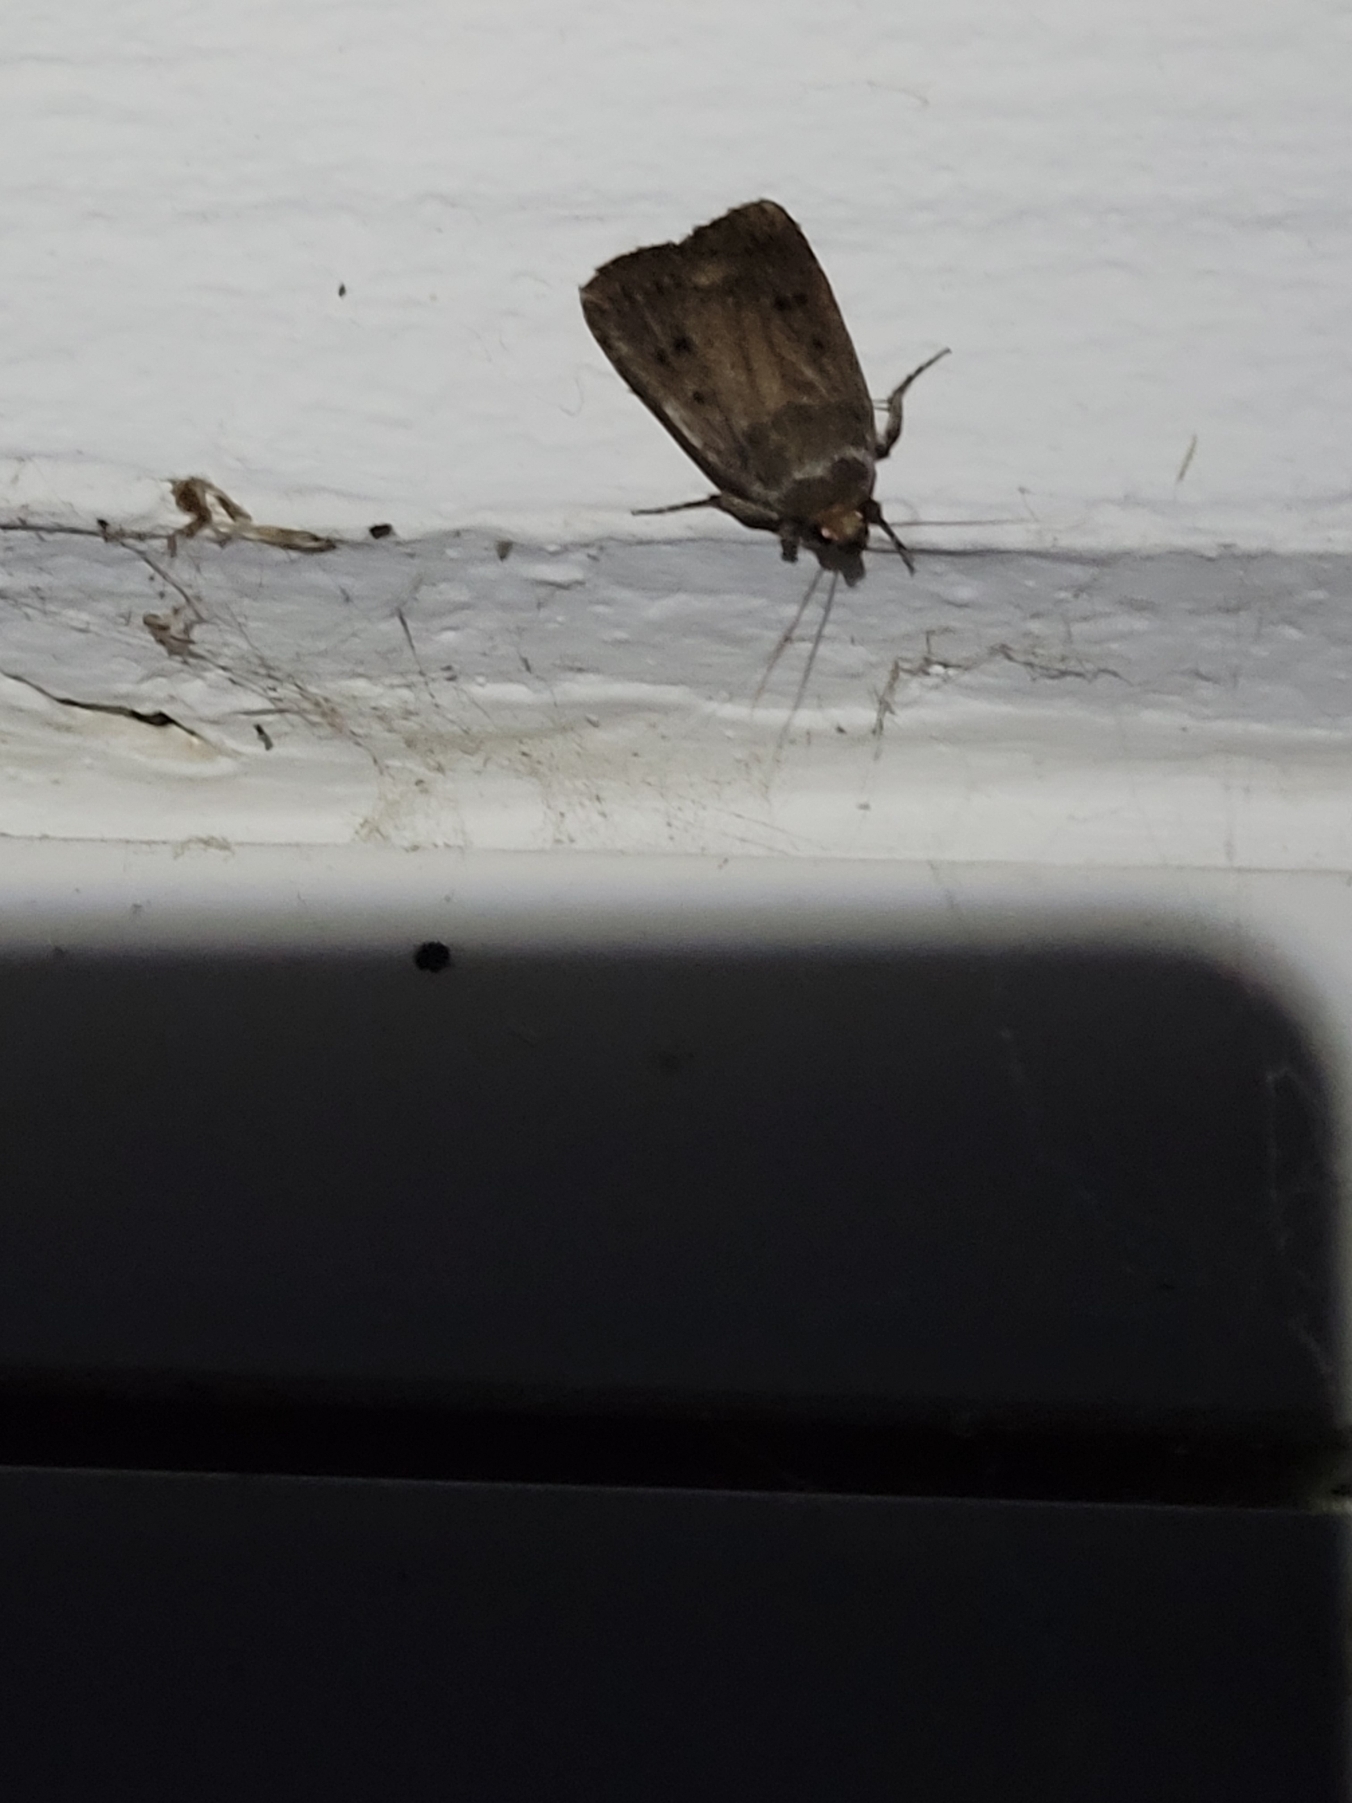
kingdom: Animalia
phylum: Arthropoda
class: Insecta
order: Lepidoptera
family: Noctuidae
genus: Amphipyra
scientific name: Amphipyra tragopoginis
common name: Blyantsugle
